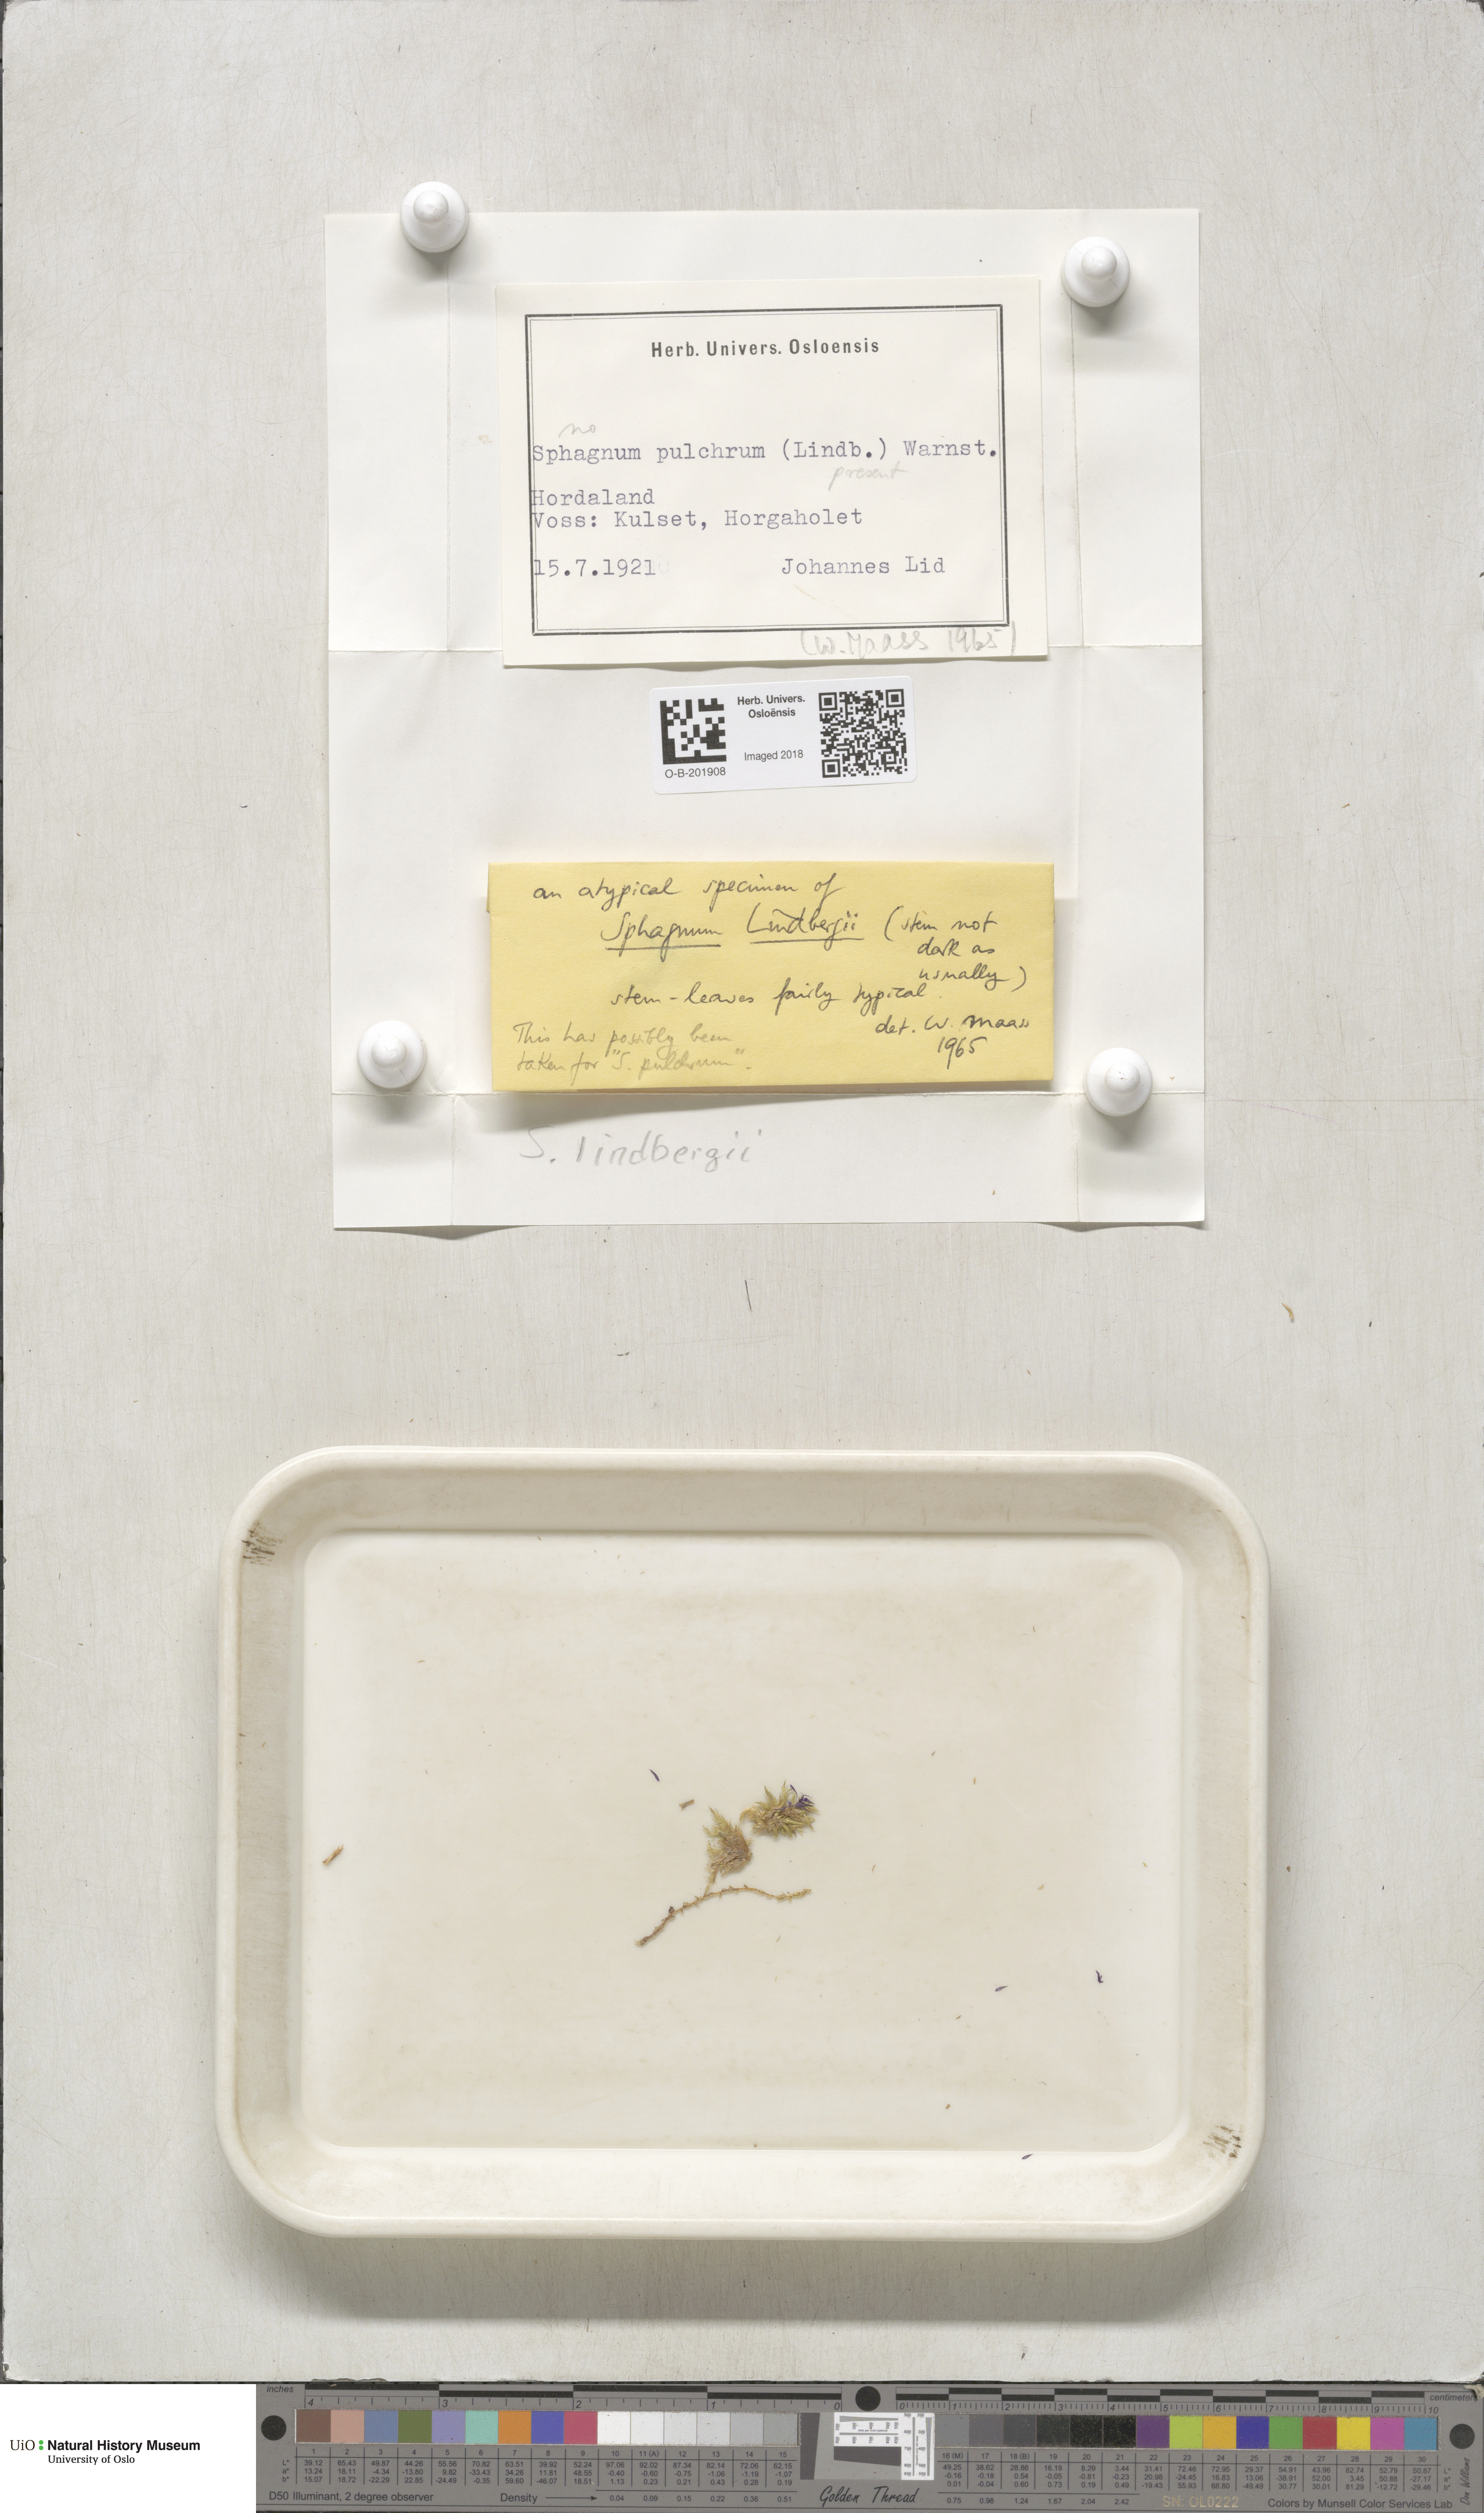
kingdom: Plantae
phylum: Bryophyta
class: Sphagnopsida
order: Sphagnales
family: Sphagnaceae
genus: Sphagnum
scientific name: Sphagnum lindbergii
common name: Lindberg's peat moss
